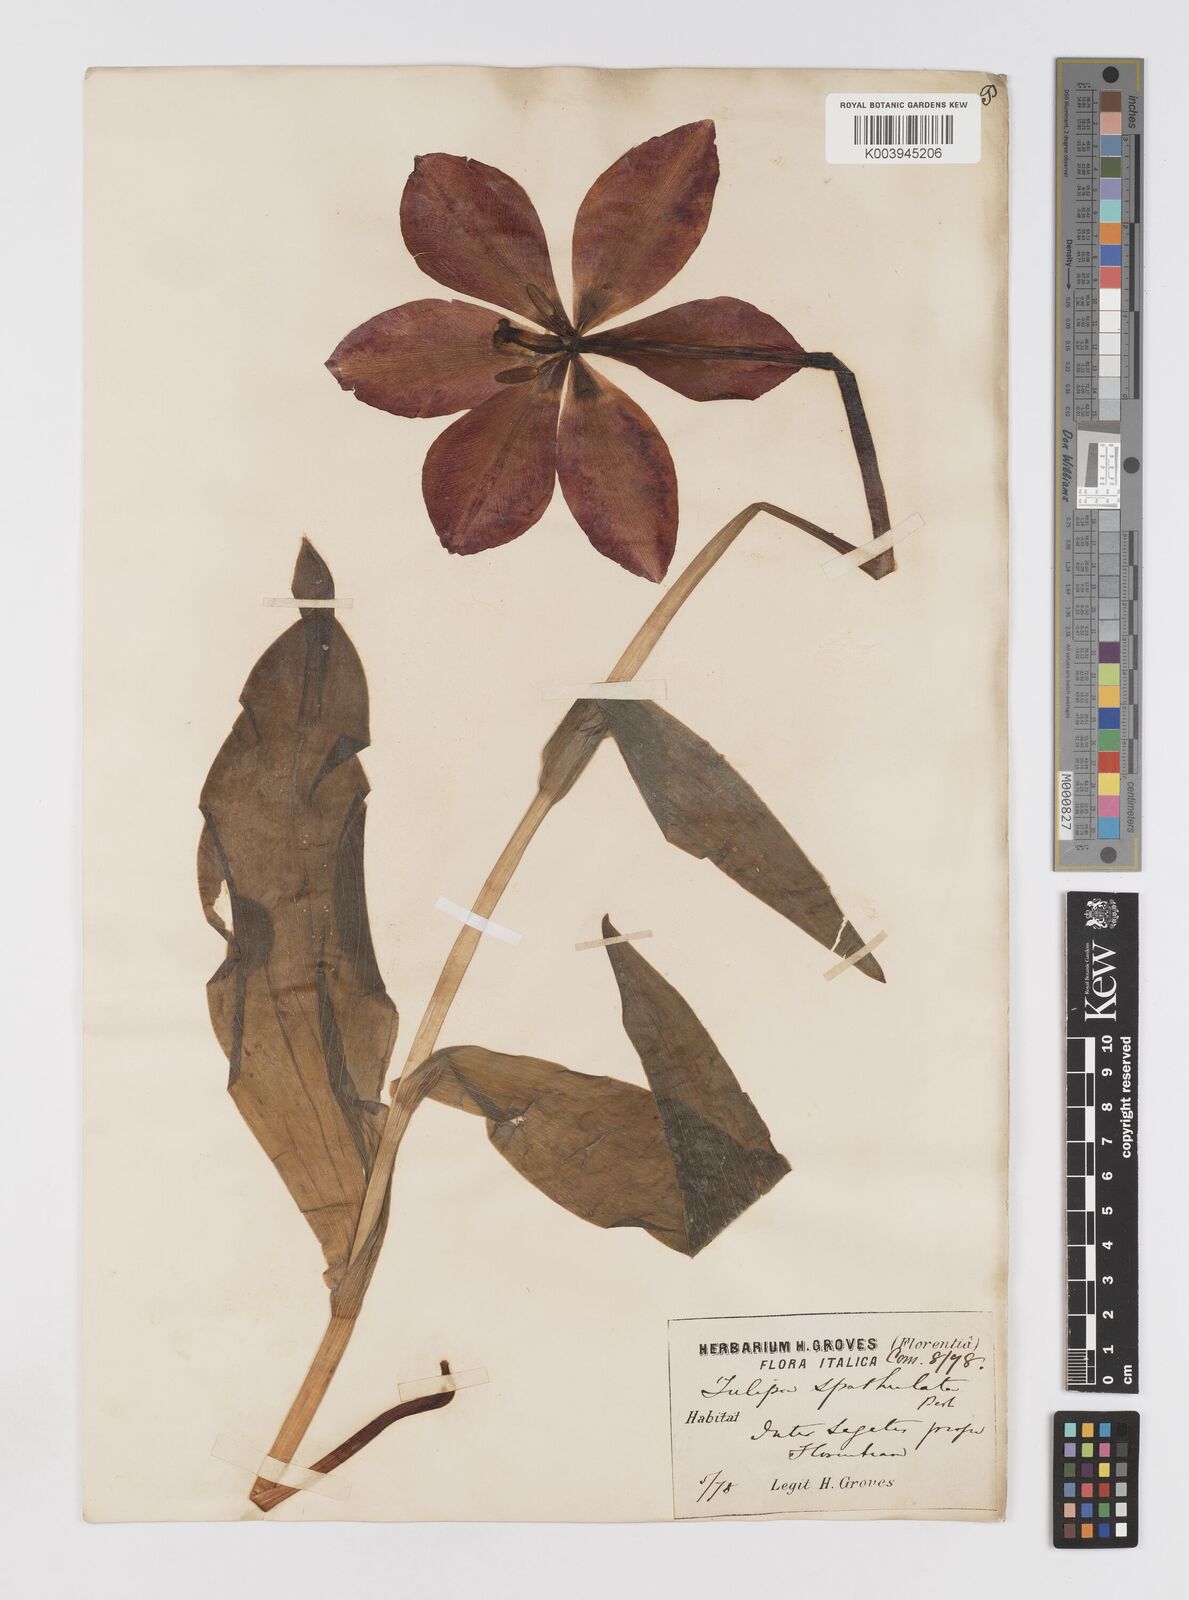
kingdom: Plantae
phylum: Tracheophyta
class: Liliopsida
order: Liliales
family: Liliaceae
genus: Tulipa
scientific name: Tulipa gesneriana
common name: Garden tulip
